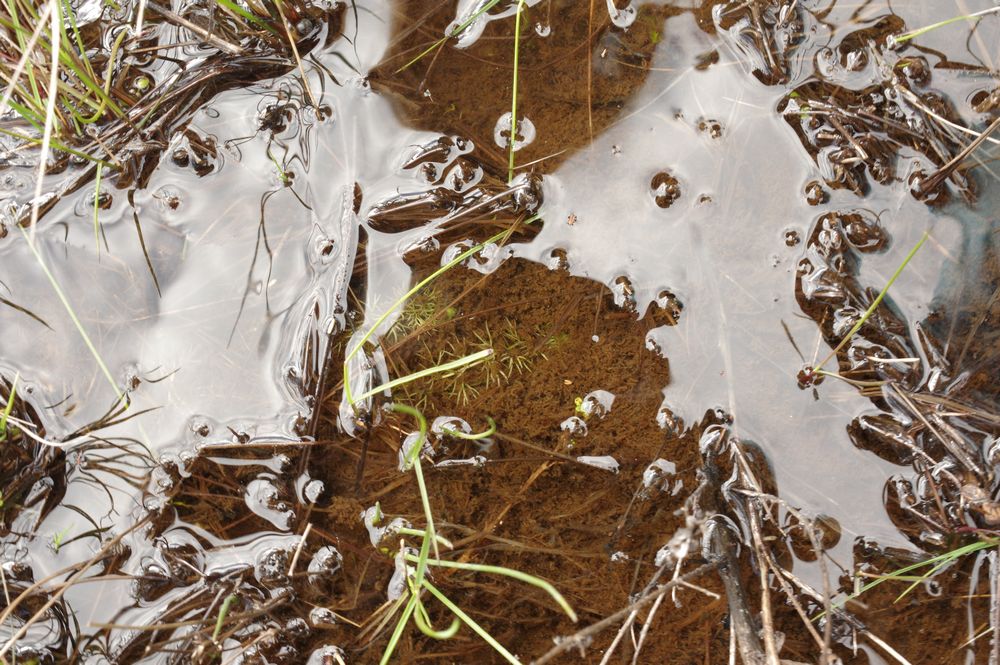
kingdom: Plantae
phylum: Tracheophyta
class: Magnoliopsida
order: Lamiales
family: Lentibulariaceae
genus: Utricularia
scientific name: Utricularia intermedia
